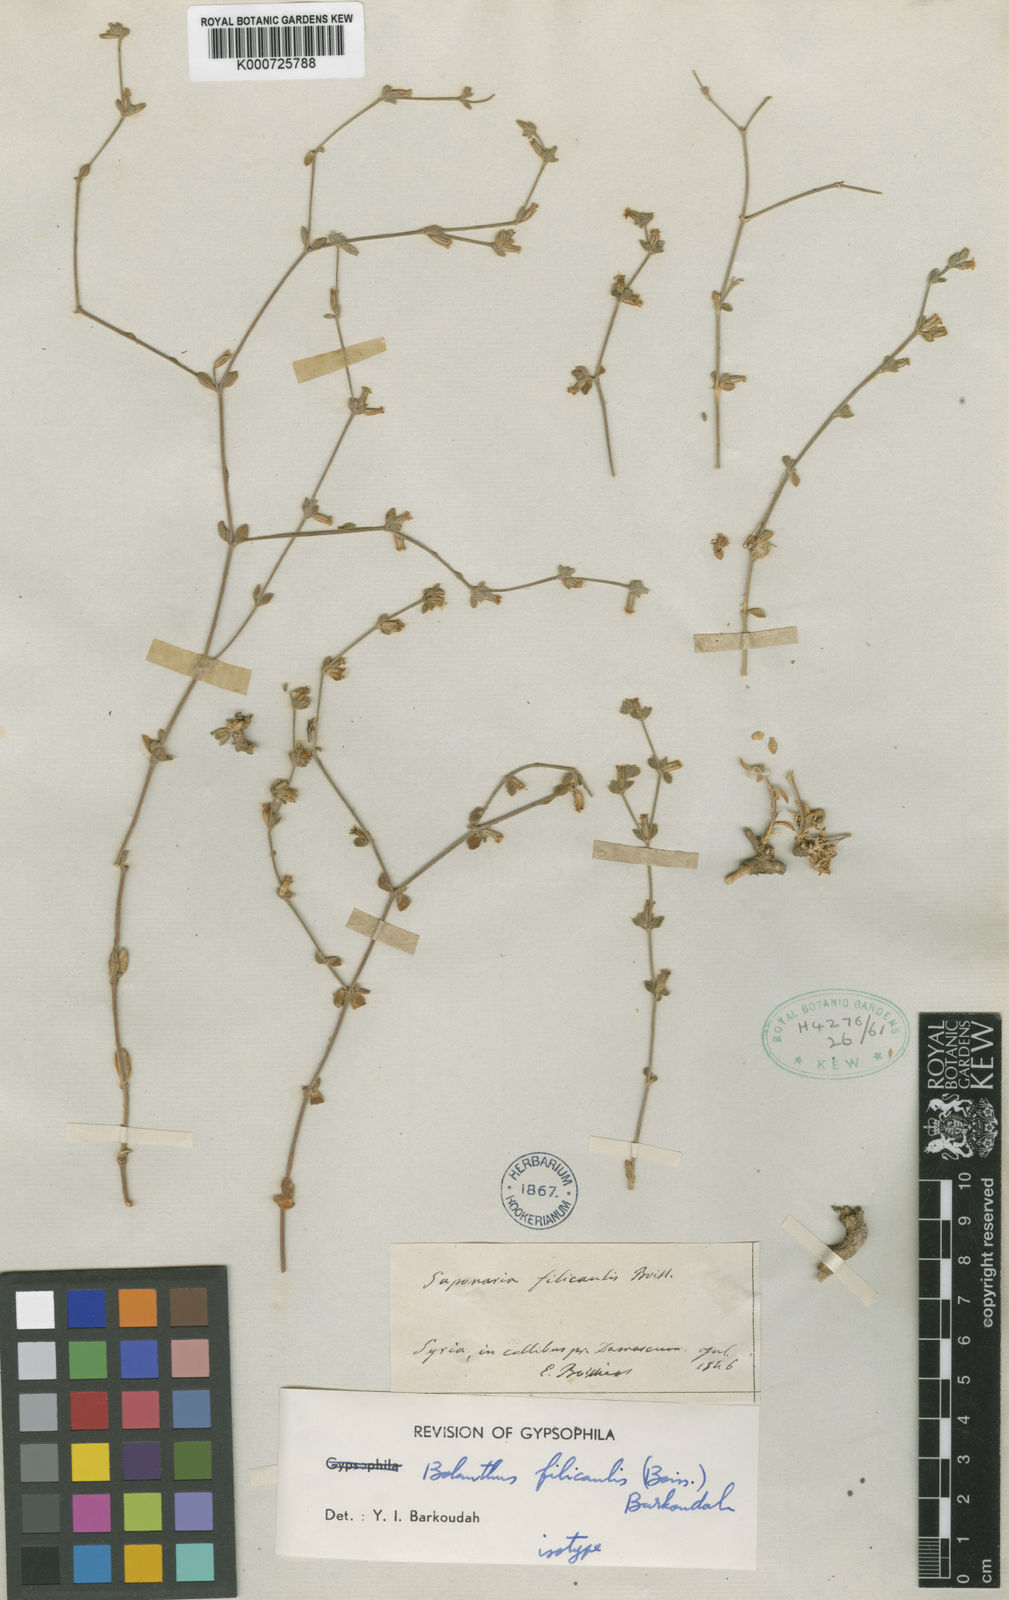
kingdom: Plantae
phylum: Tracheophyta
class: Magnoliopsida
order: Caryophyllales
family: Caryophyllaceae
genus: Bolanthus
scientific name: Bolanthus filicaulis
